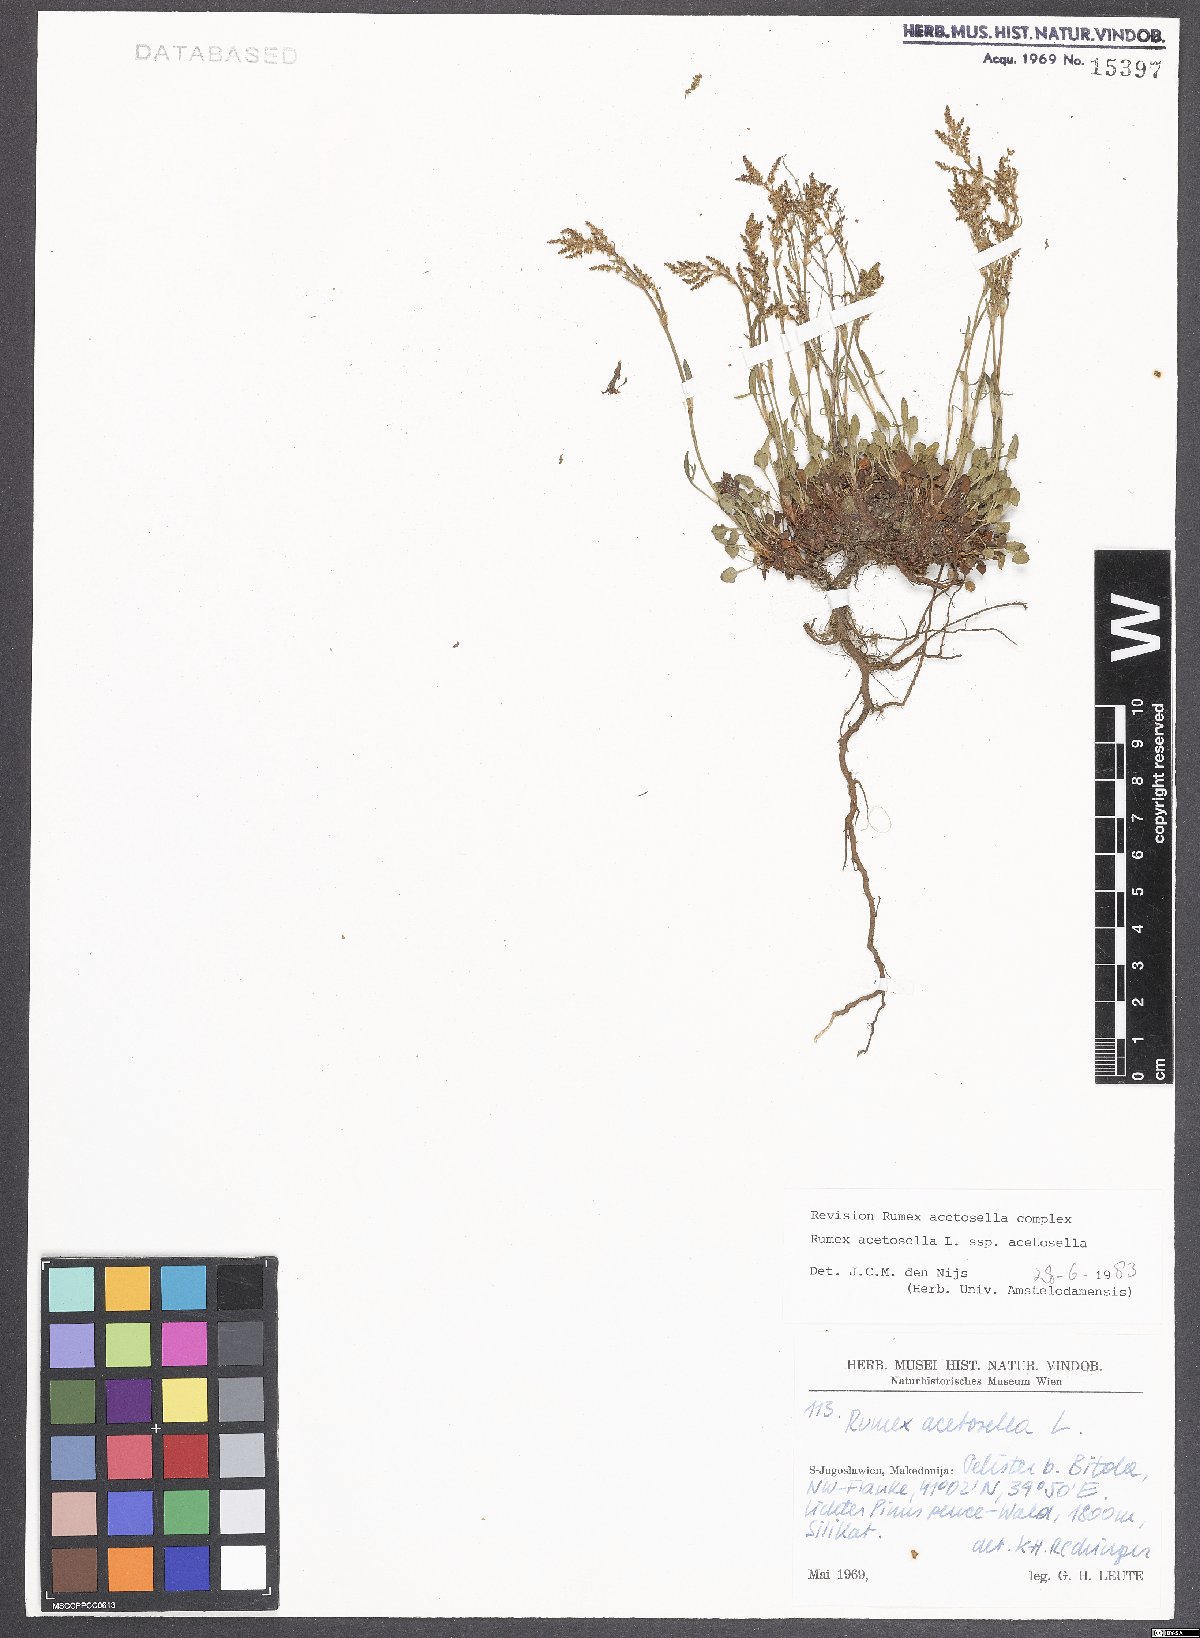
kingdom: Plantae
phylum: Tracheophyta
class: Magnoliopsida
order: Caryophyllales
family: Polygonaceae
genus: Rumex
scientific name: Rumex acetosella
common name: Common sheep sorrel
